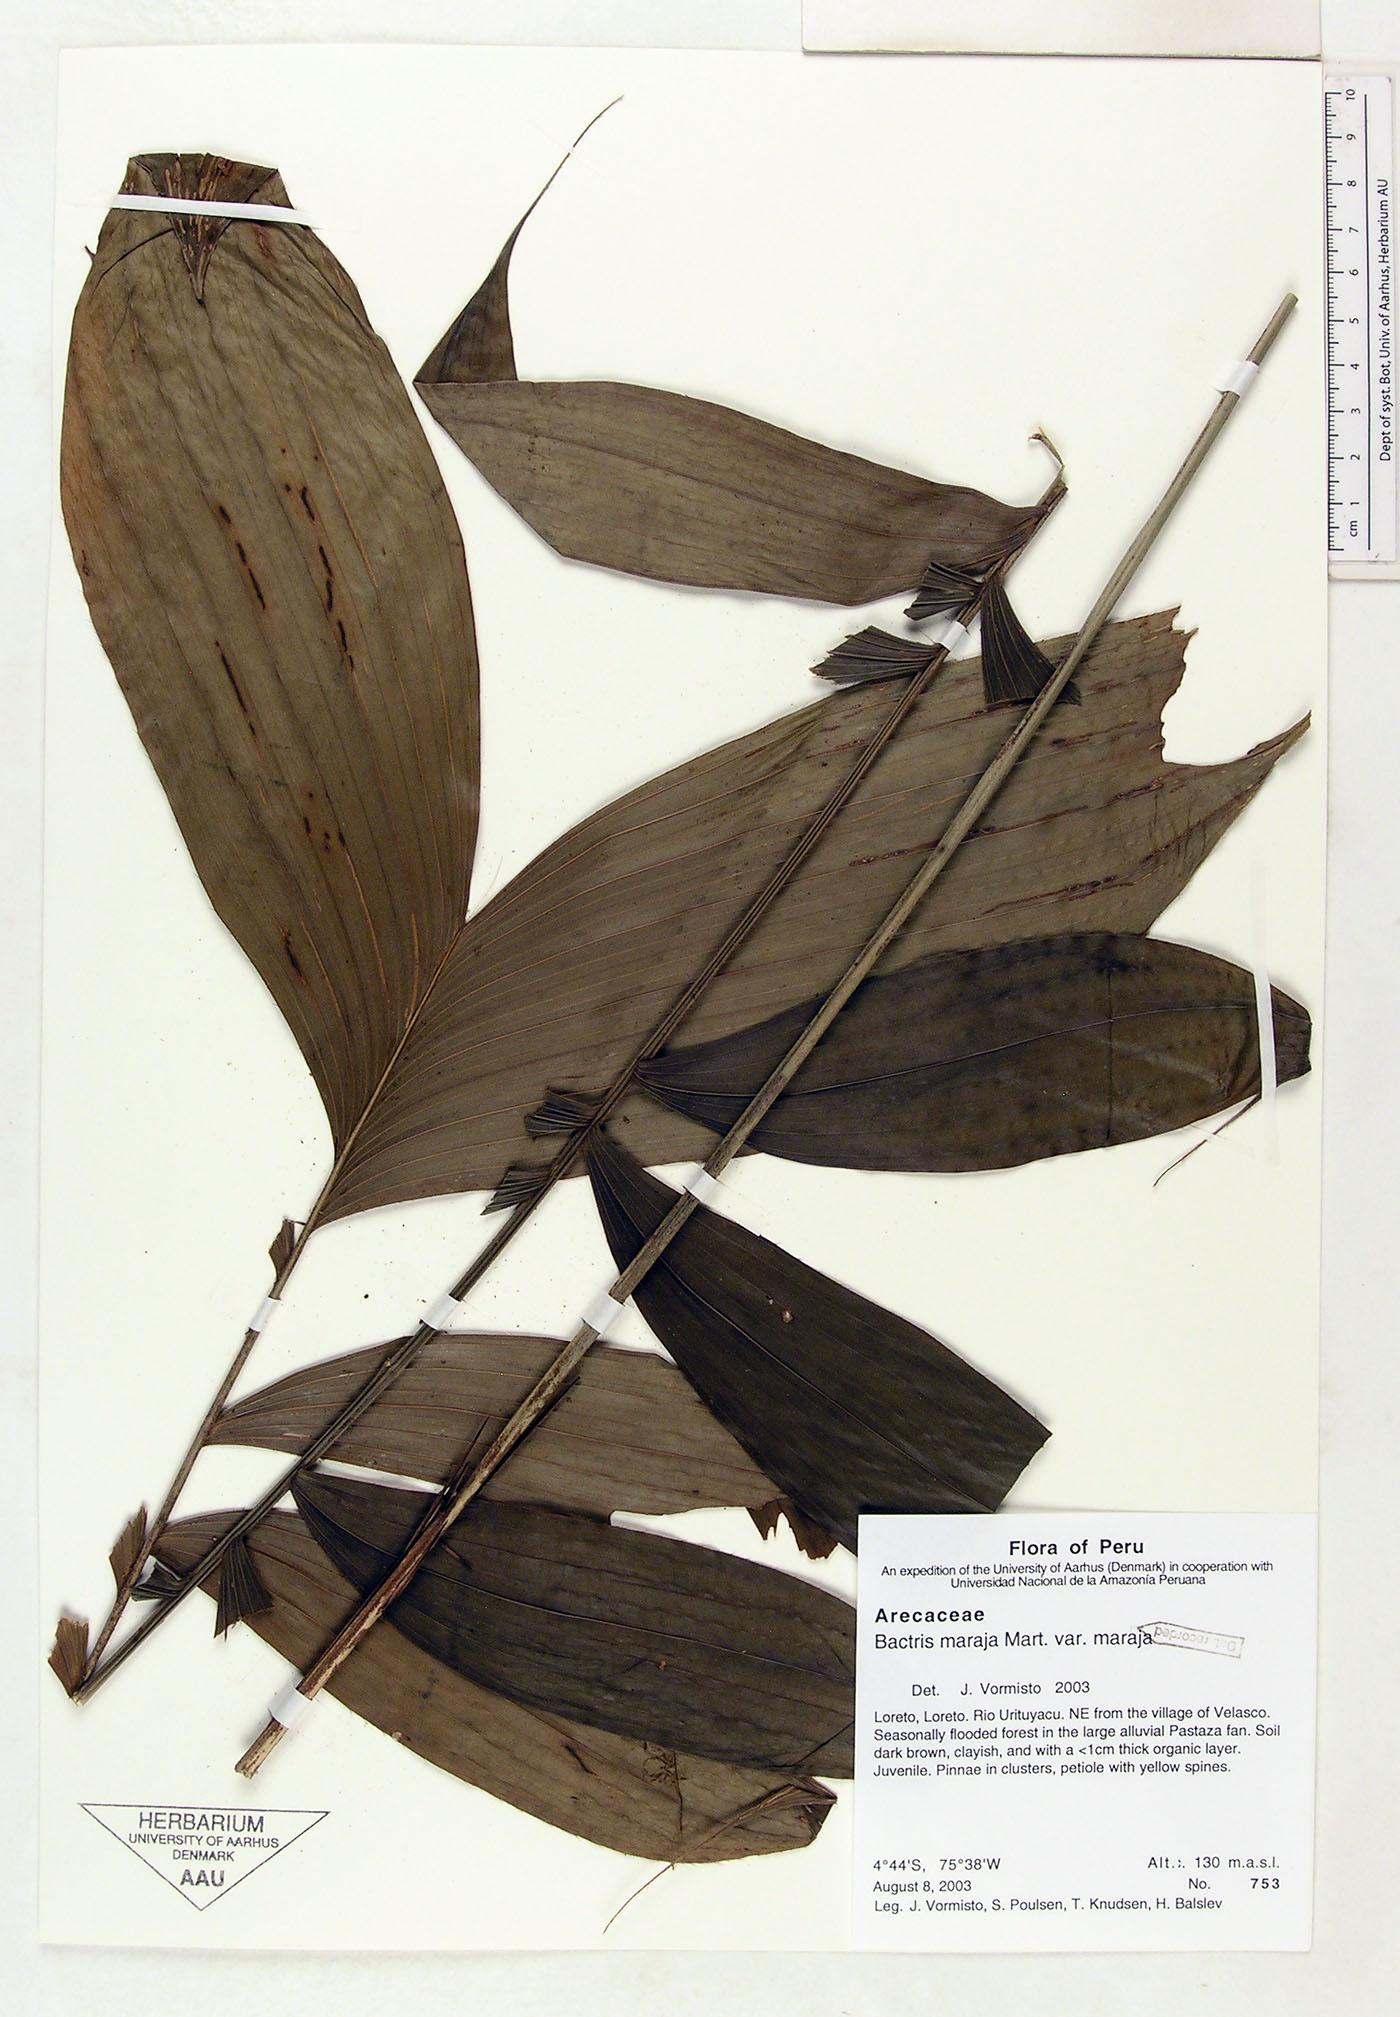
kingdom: Plantae
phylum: Tracheophyta
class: Liliopsida
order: Arecales
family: Arecaceae
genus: Bactris
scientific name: Bactris maraja
